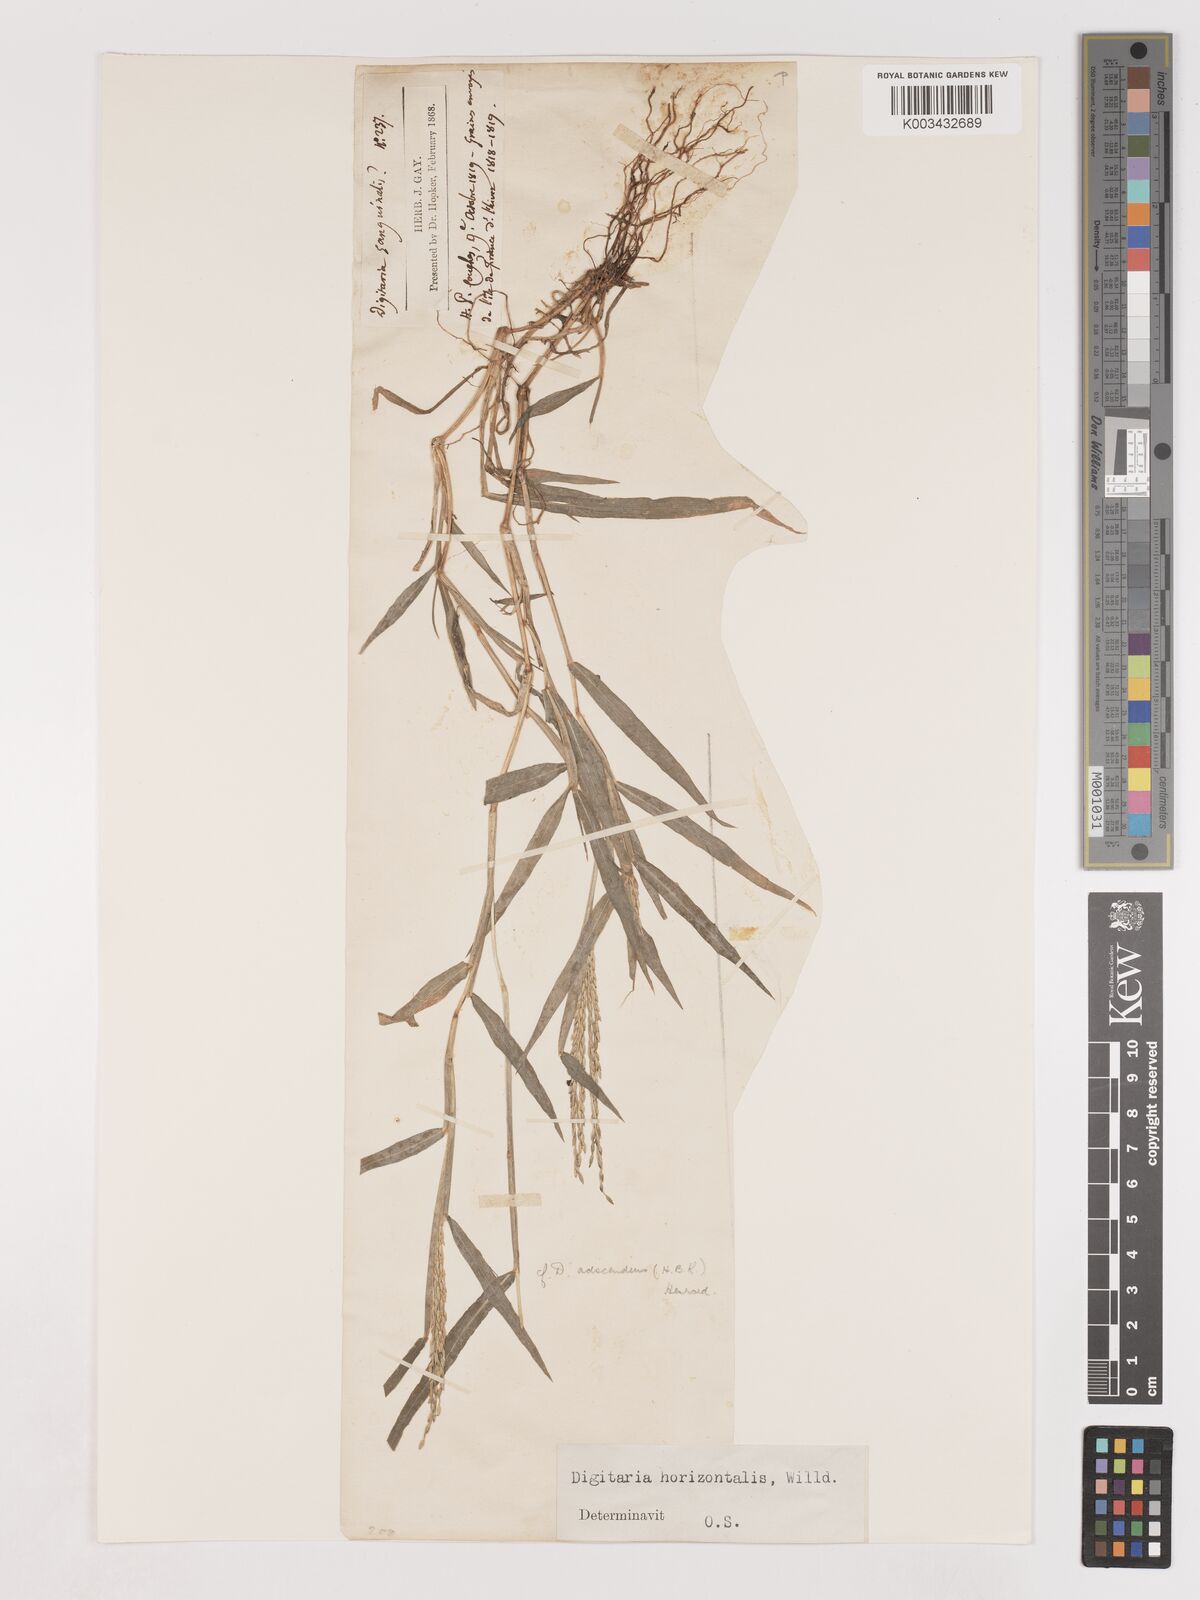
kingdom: Plantae
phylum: Tracheophyta
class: Liliopsida
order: Poales
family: Poaceae
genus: Digitaria
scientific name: Digitaria ciliaris
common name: Tropical finger-grass
